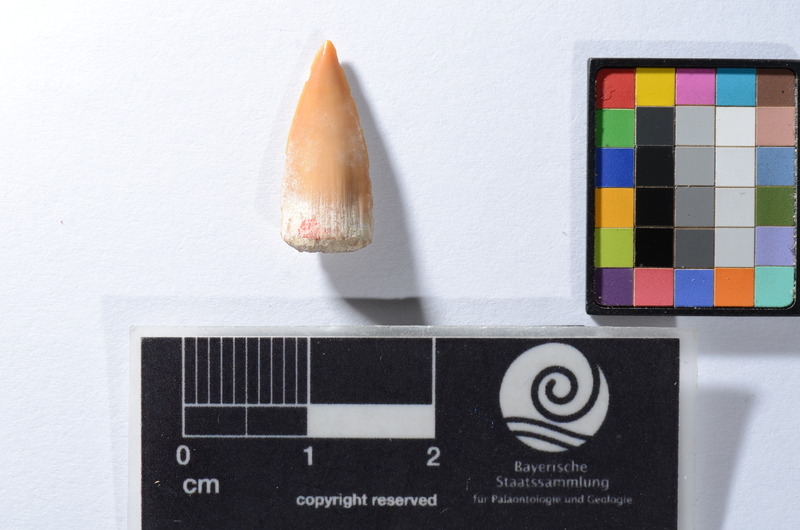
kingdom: Animalia
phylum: Chordata
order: Perciformes
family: Sphyraenidae
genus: Sphyraena
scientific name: Sphyraena Saurocephalus fajumensis
